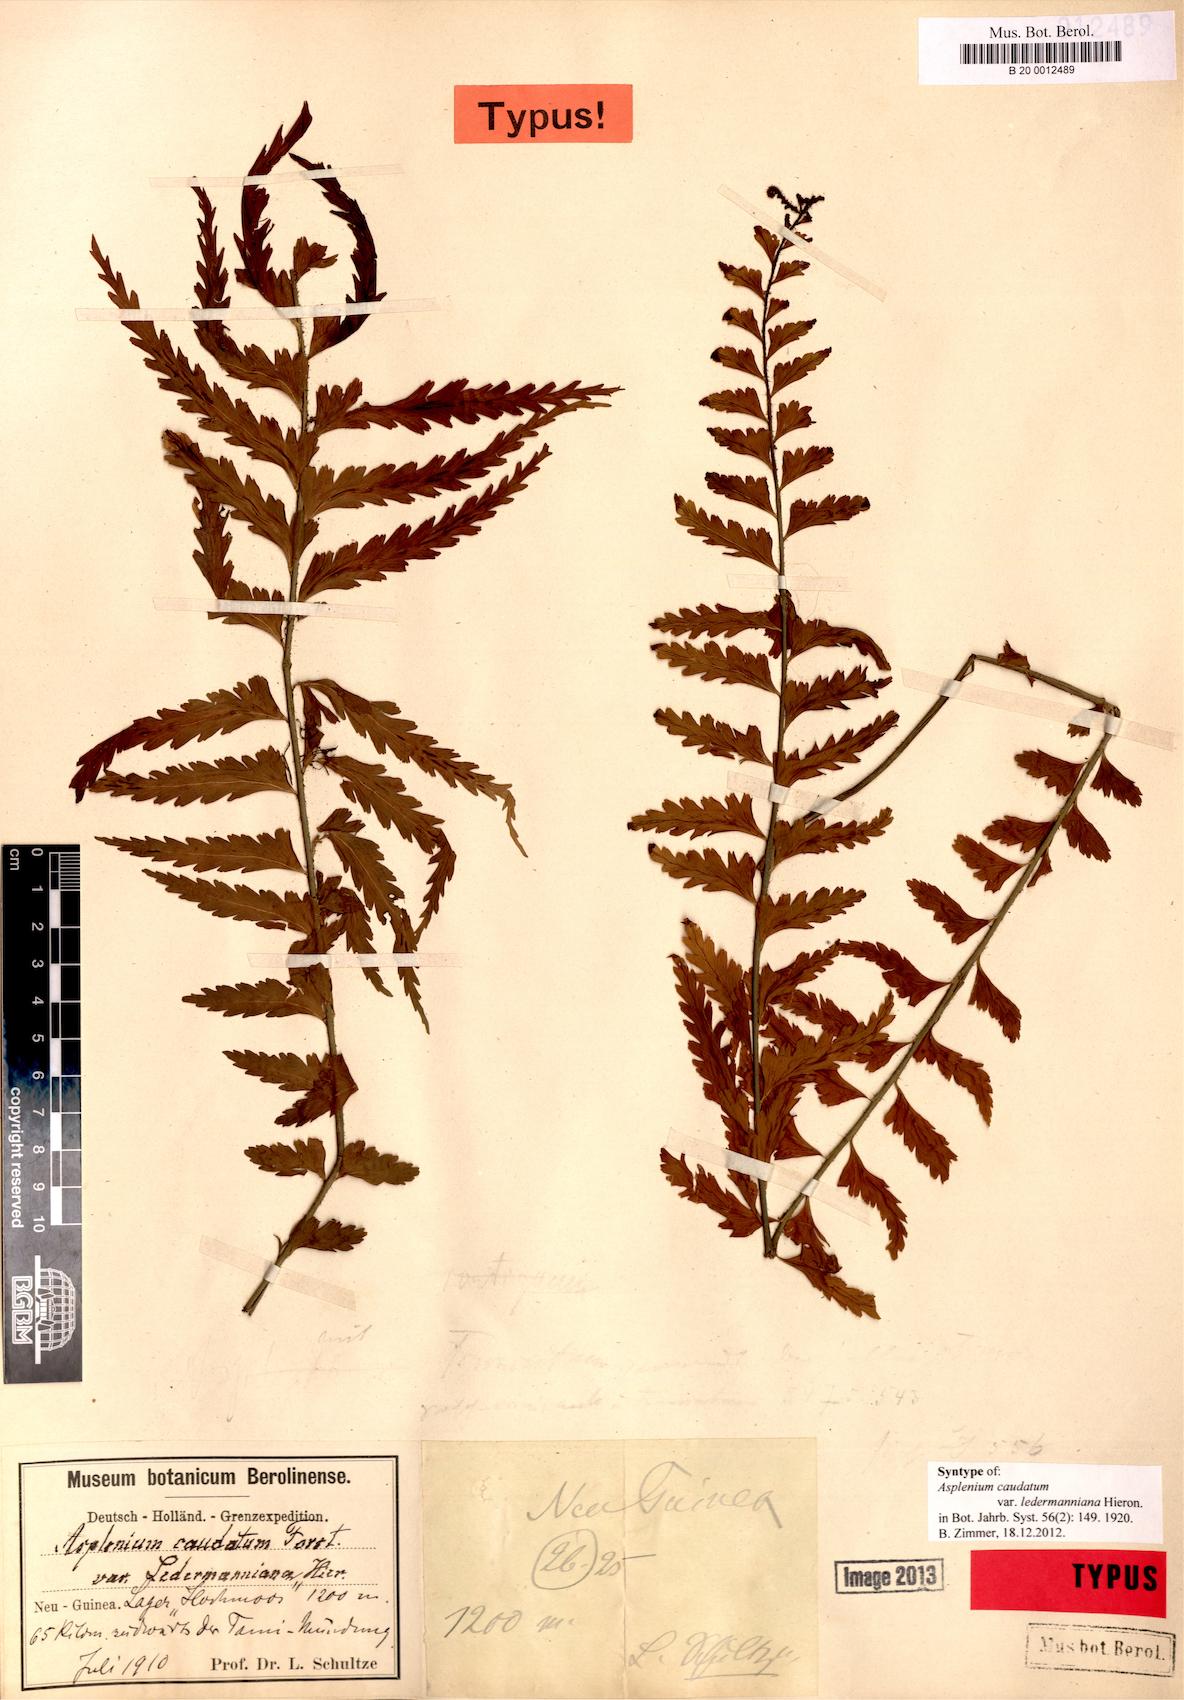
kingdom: Plantae
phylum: Tracheophyta
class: Polypodiopsida
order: Polypodiales
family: Aspleniaceae
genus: Asplenium
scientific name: Asplenium caudatum
